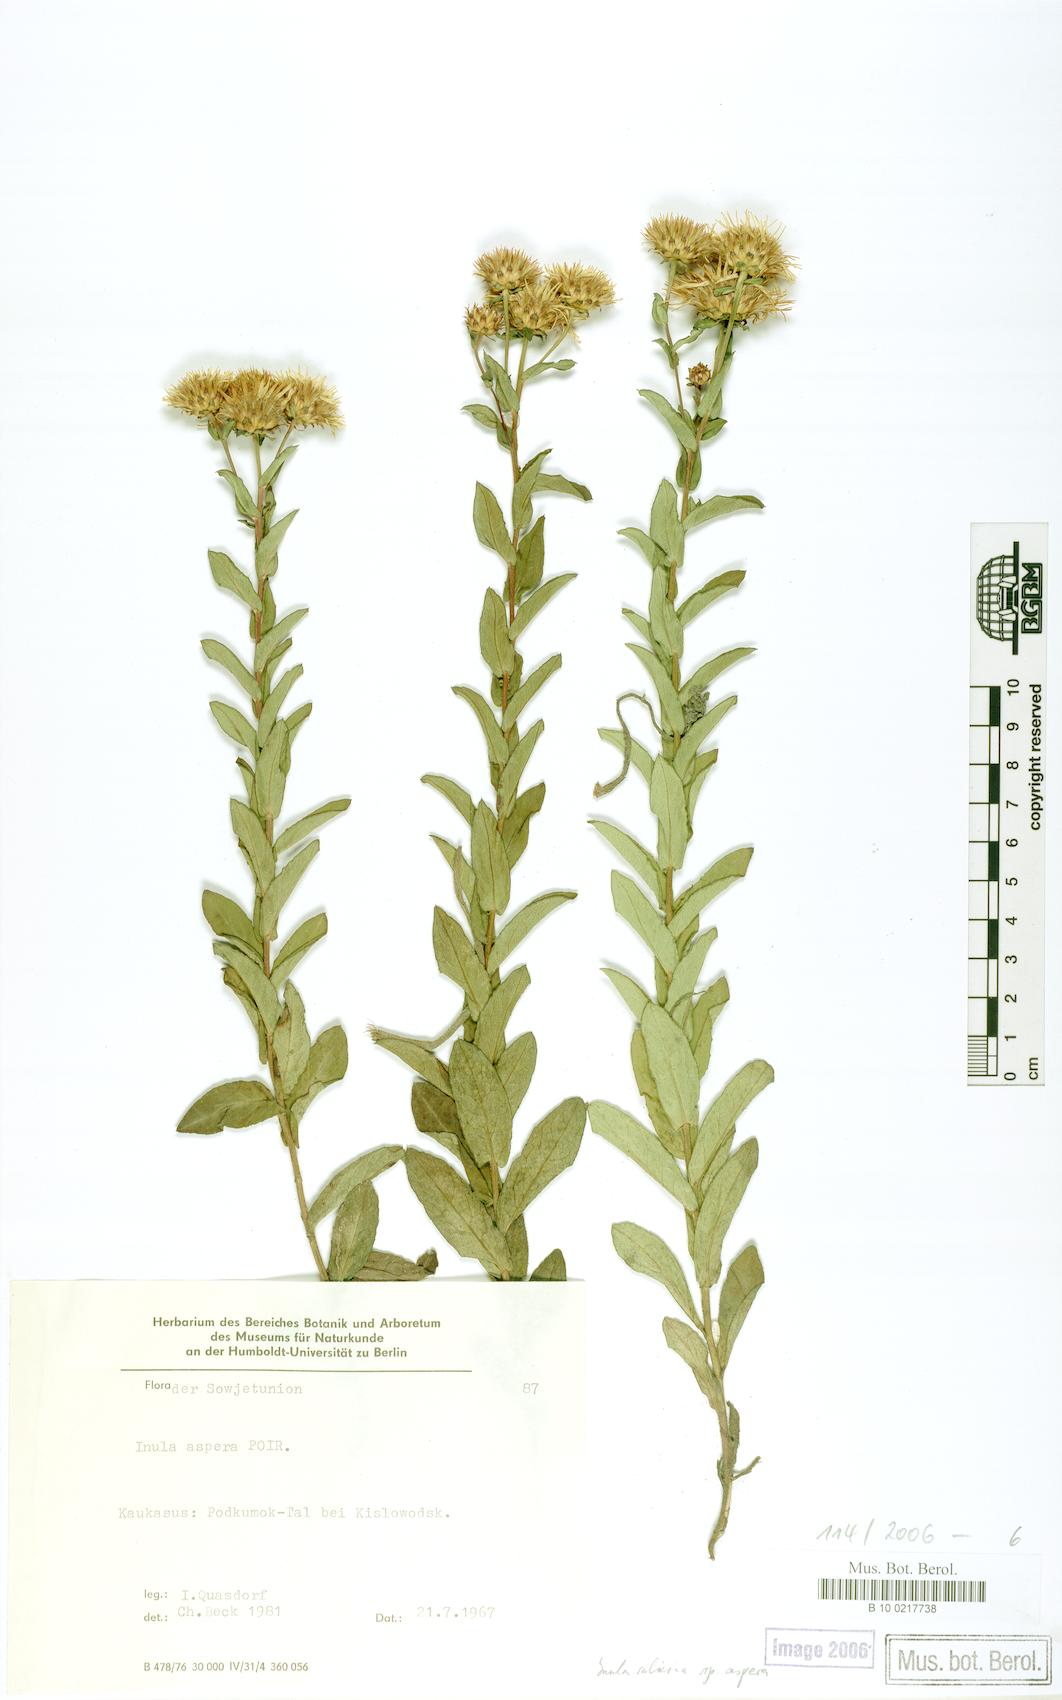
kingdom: Plantae
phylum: Tracheophyta
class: Magnoliopsida
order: Asterales
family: Asteraceae
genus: Pentanema
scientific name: Pentanema spiraeifolium
